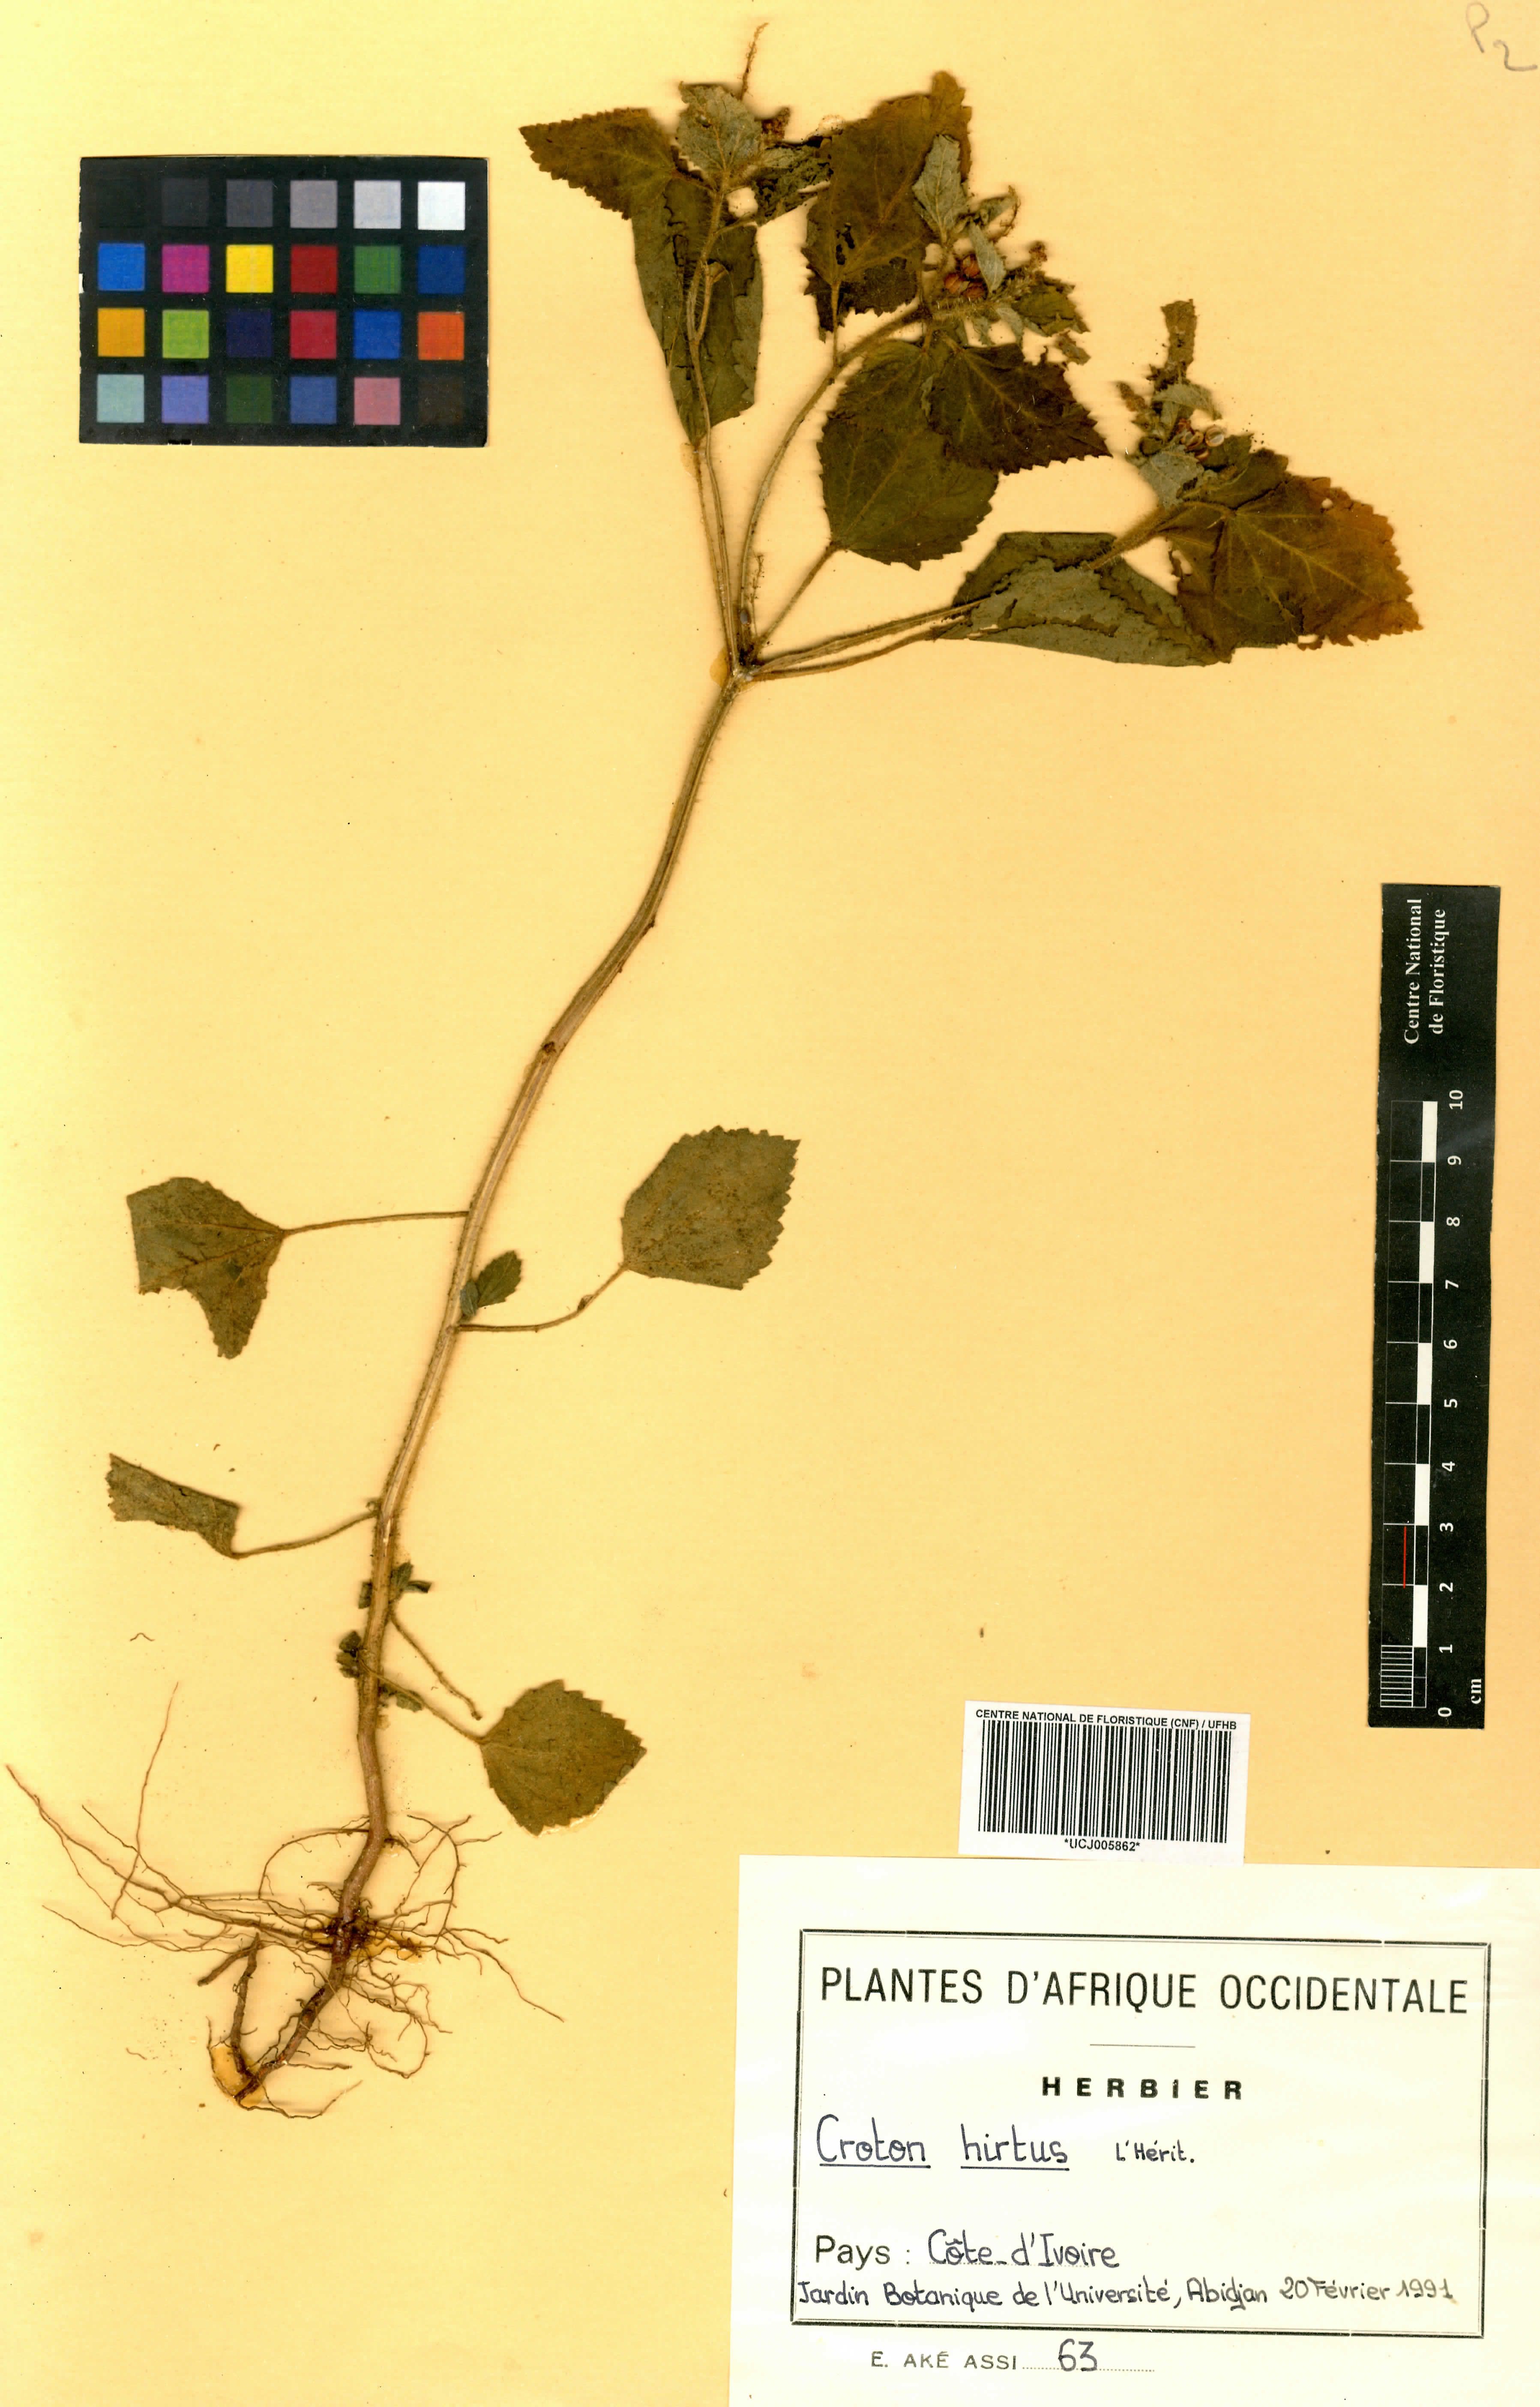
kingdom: Plantae
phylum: Tracheophyta
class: Magnoliopsida
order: Malpighiales
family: Euphorbiaceae
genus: Croton
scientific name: Croton hirtus
